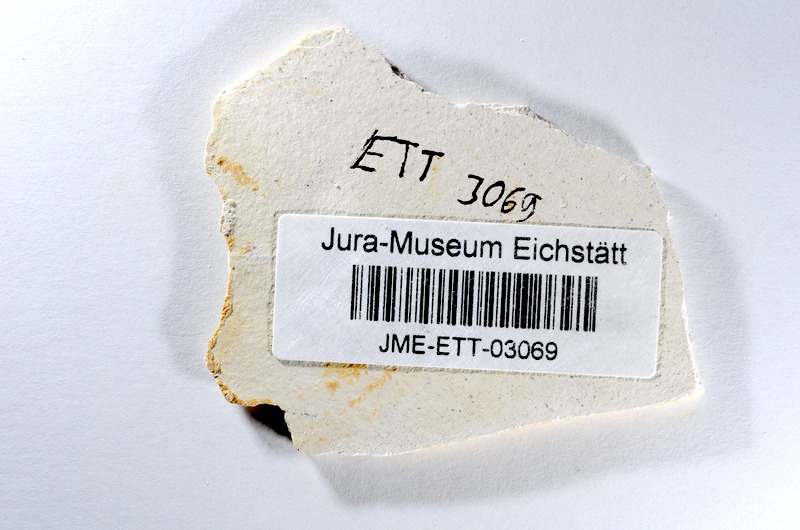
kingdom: Animalia
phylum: Chordata
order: Salmoniformes
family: Orthogonikleithridae
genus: Orthogonikleithrus
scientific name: Orthogonikleithrus hoelli
